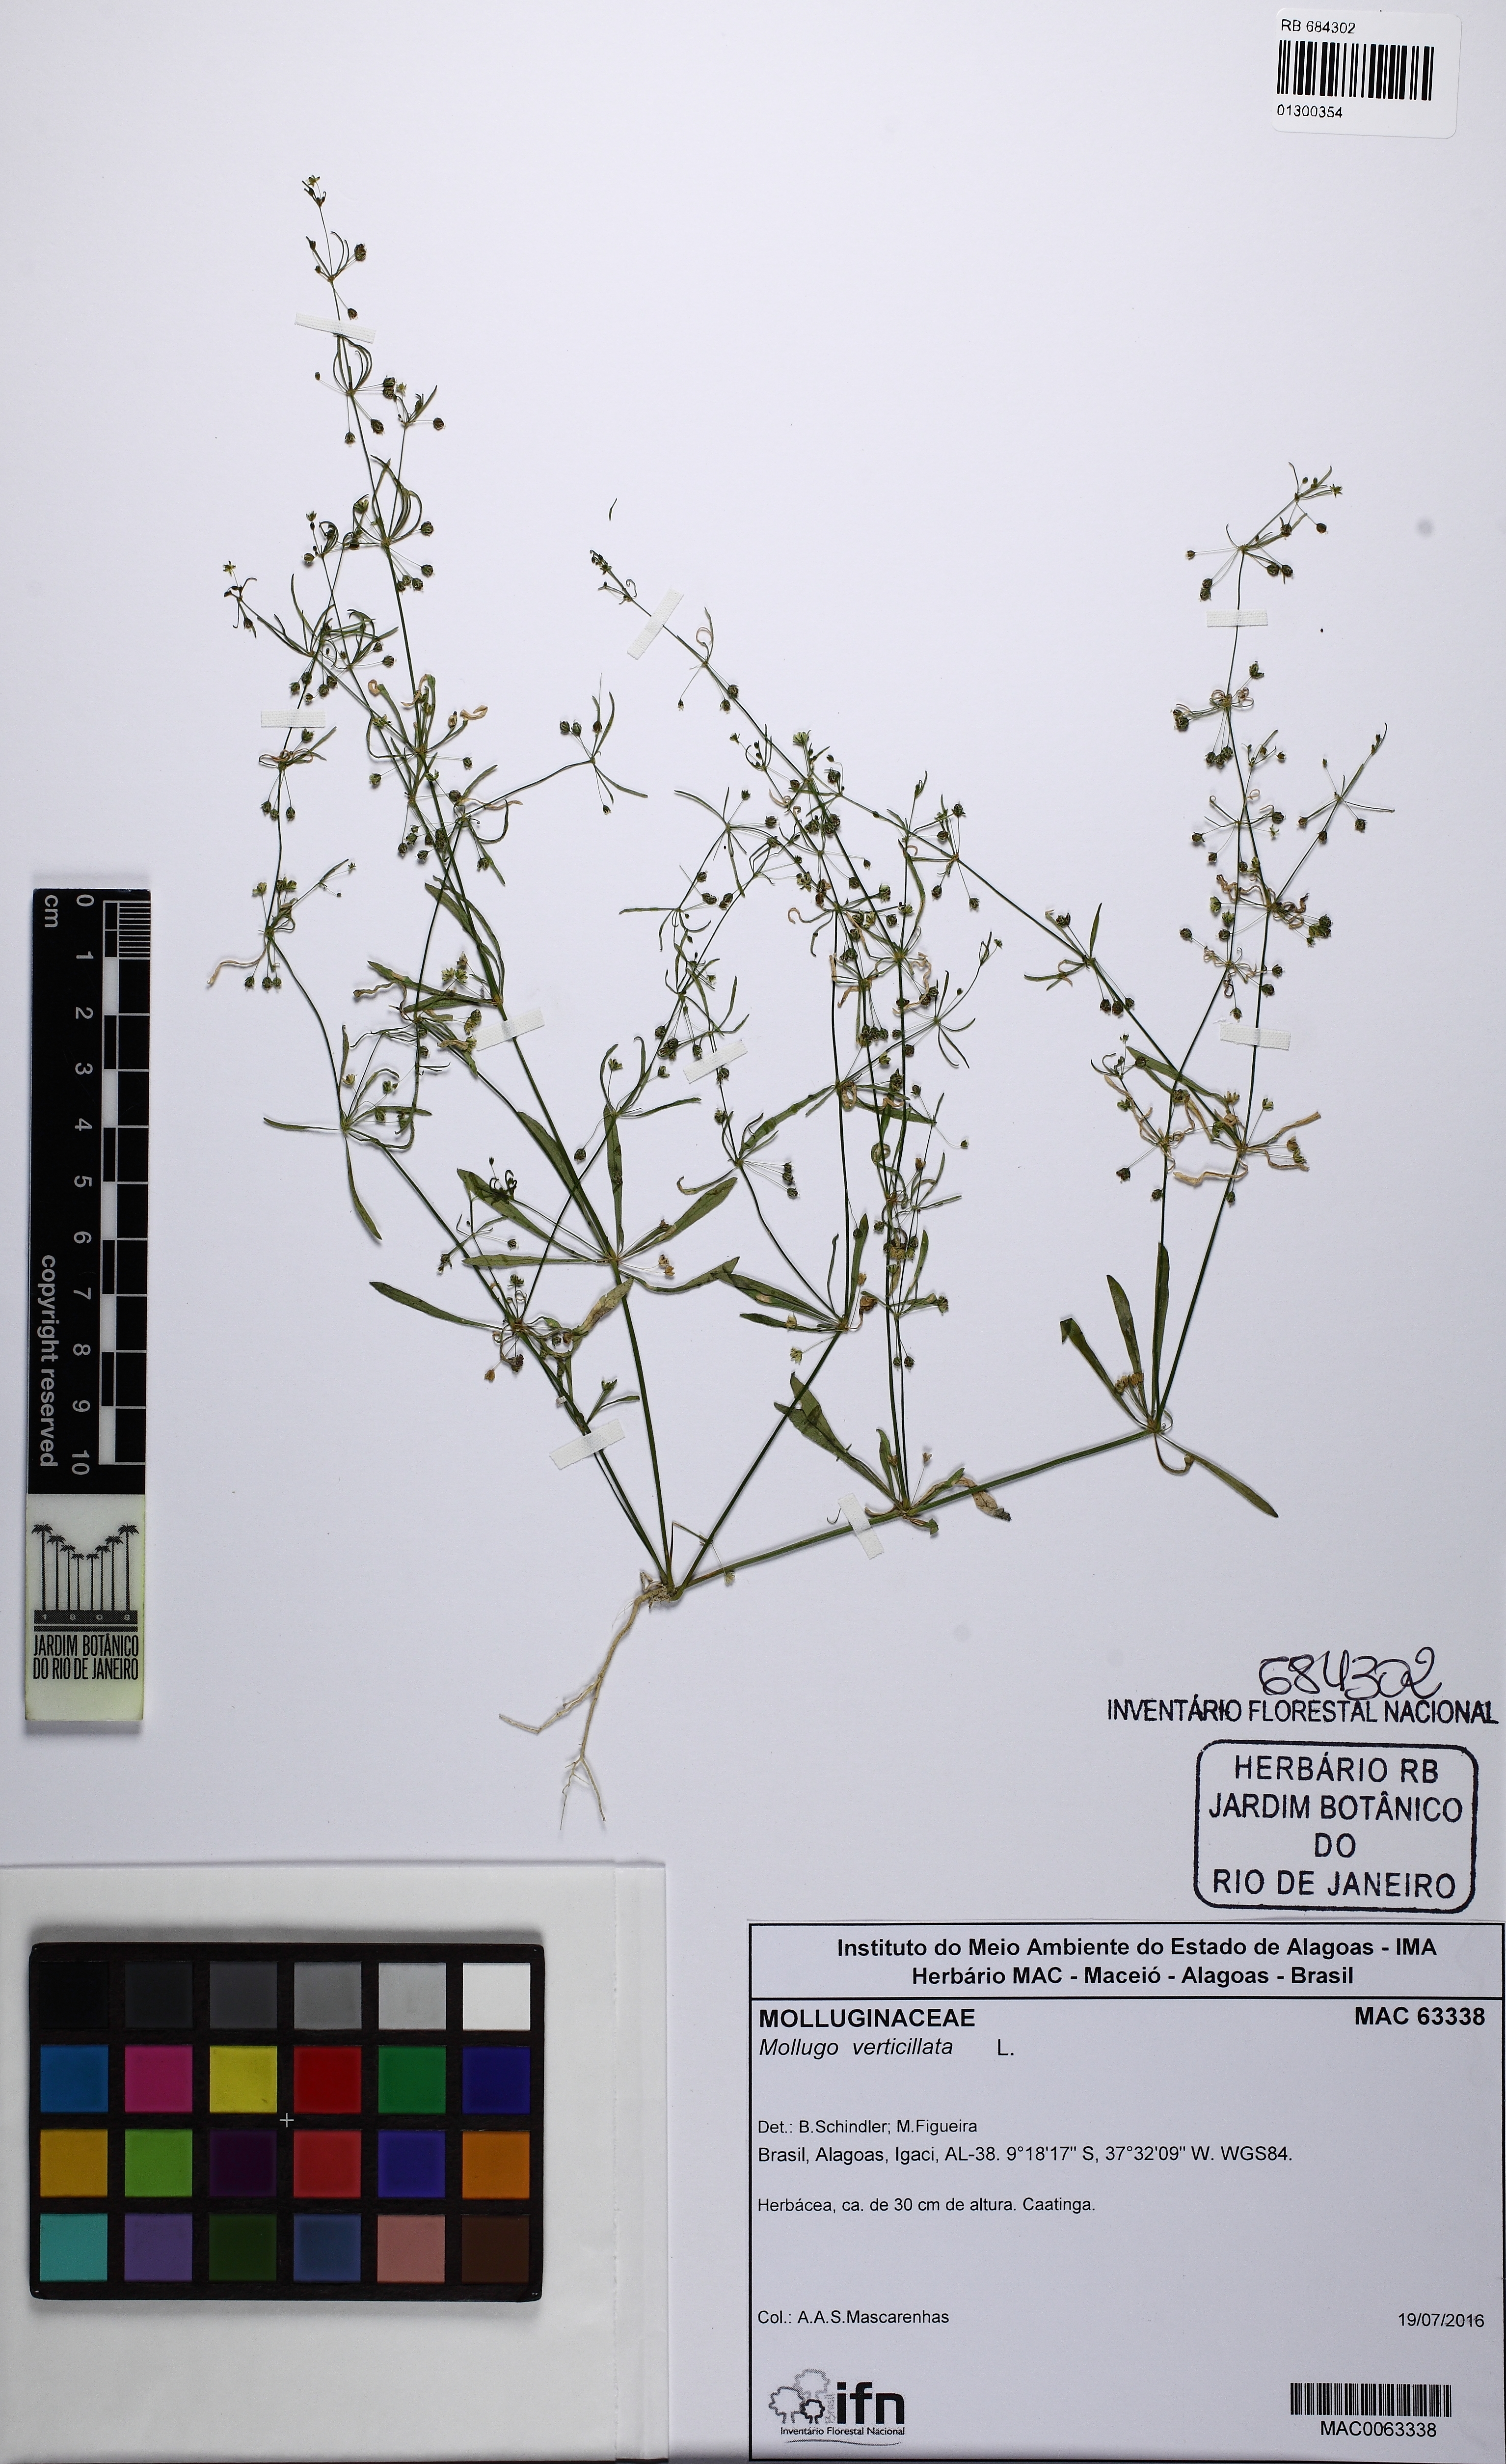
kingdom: Plantae
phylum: Tracheophyta
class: Magnoliopsida
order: Caryophyllales
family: Molluginaceae
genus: Mollugo
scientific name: Mollugo verticillata
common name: Green carpetweed
